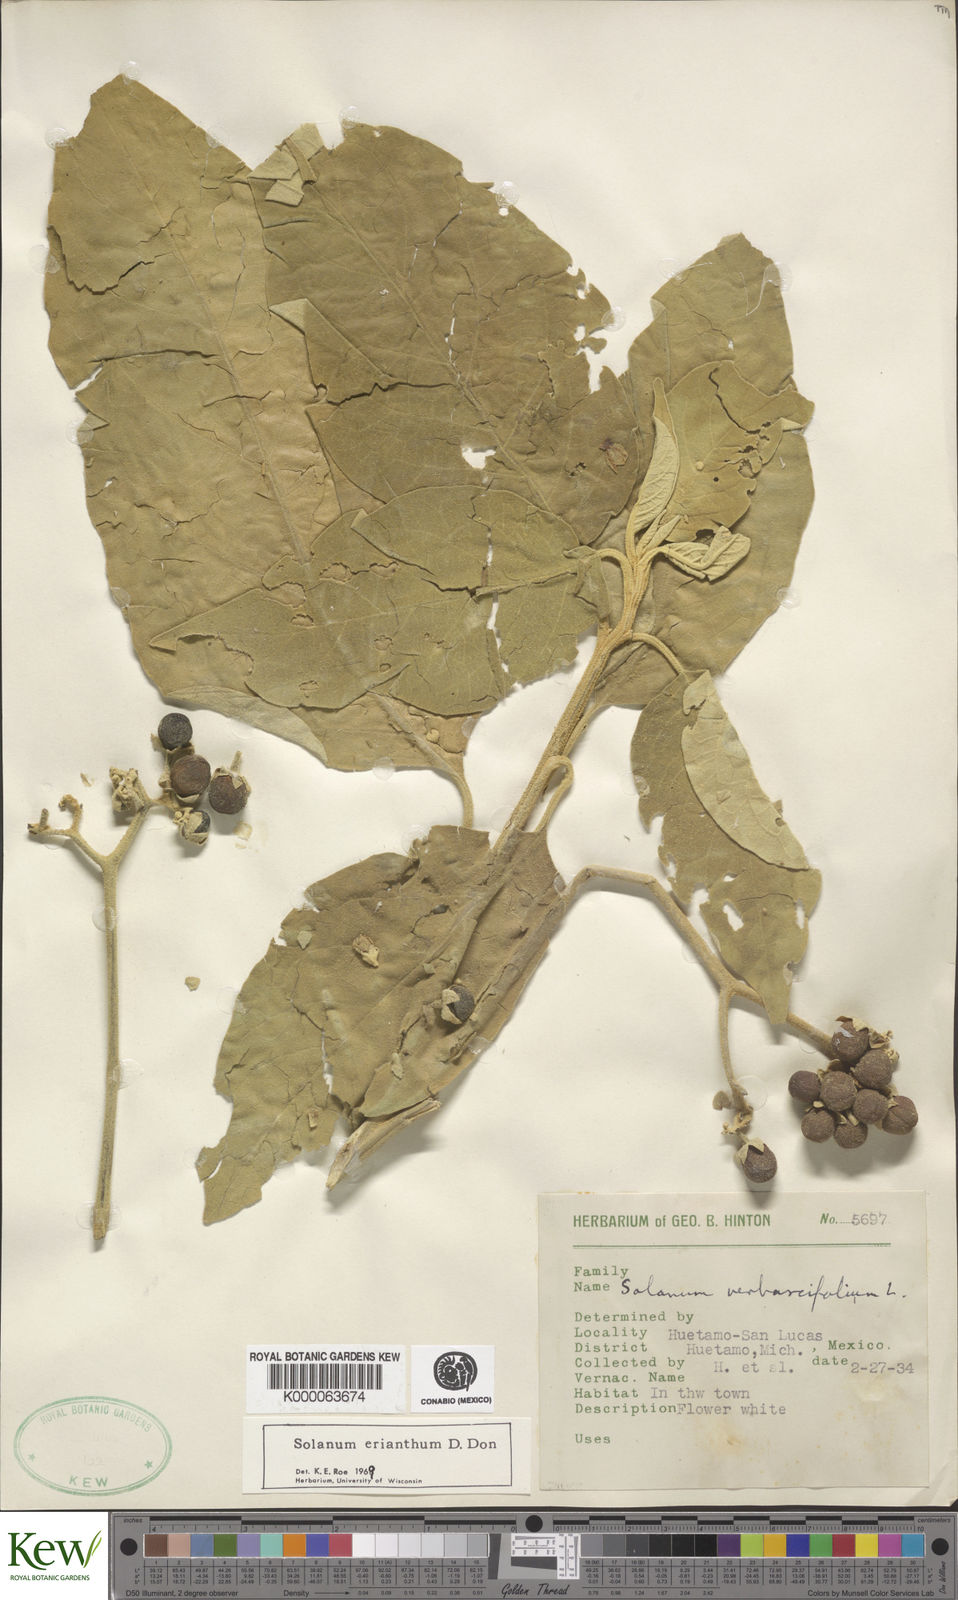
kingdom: Plantae
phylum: Tracheophyta
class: Magnoliopsida
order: Solanales
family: Solanaceae
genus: Solanum
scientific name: Solanum erianthum
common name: Tobacco-tree
